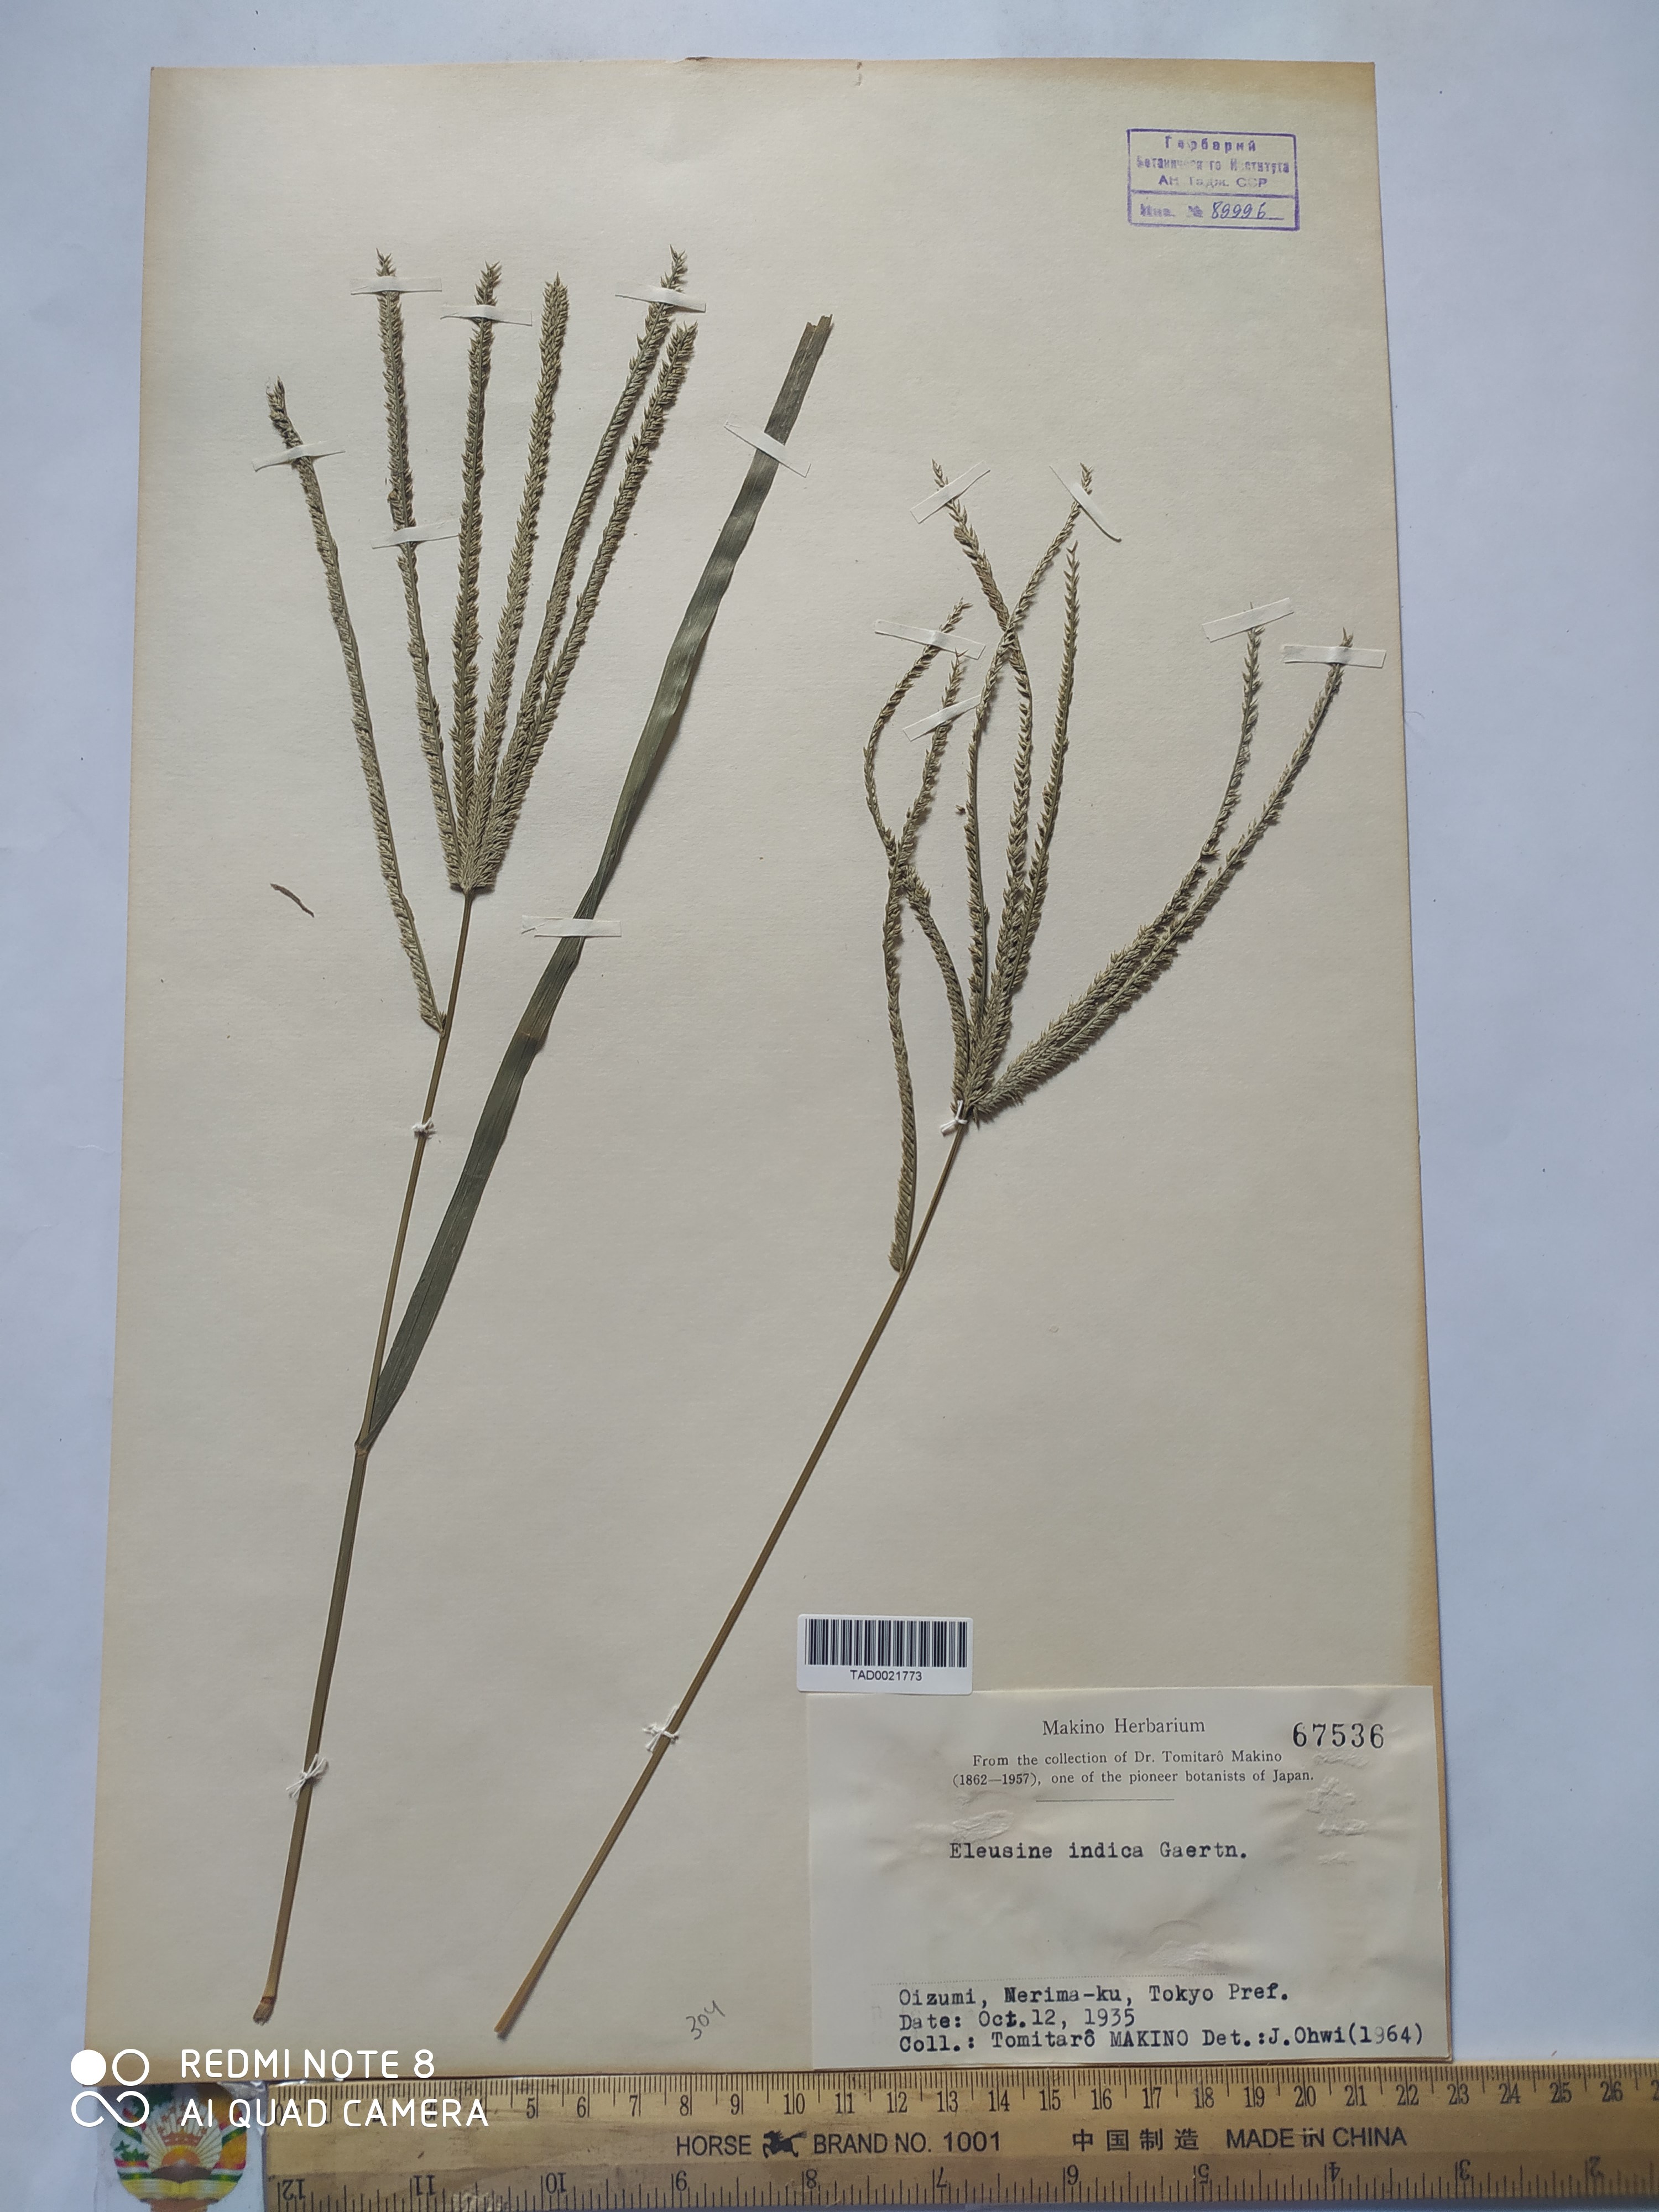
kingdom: Plantae
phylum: Tracheophyta
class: Liliopsida
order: Poales
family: Poaceae
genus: Eleusine
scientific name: Eleusine indica
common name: Yard-grass
